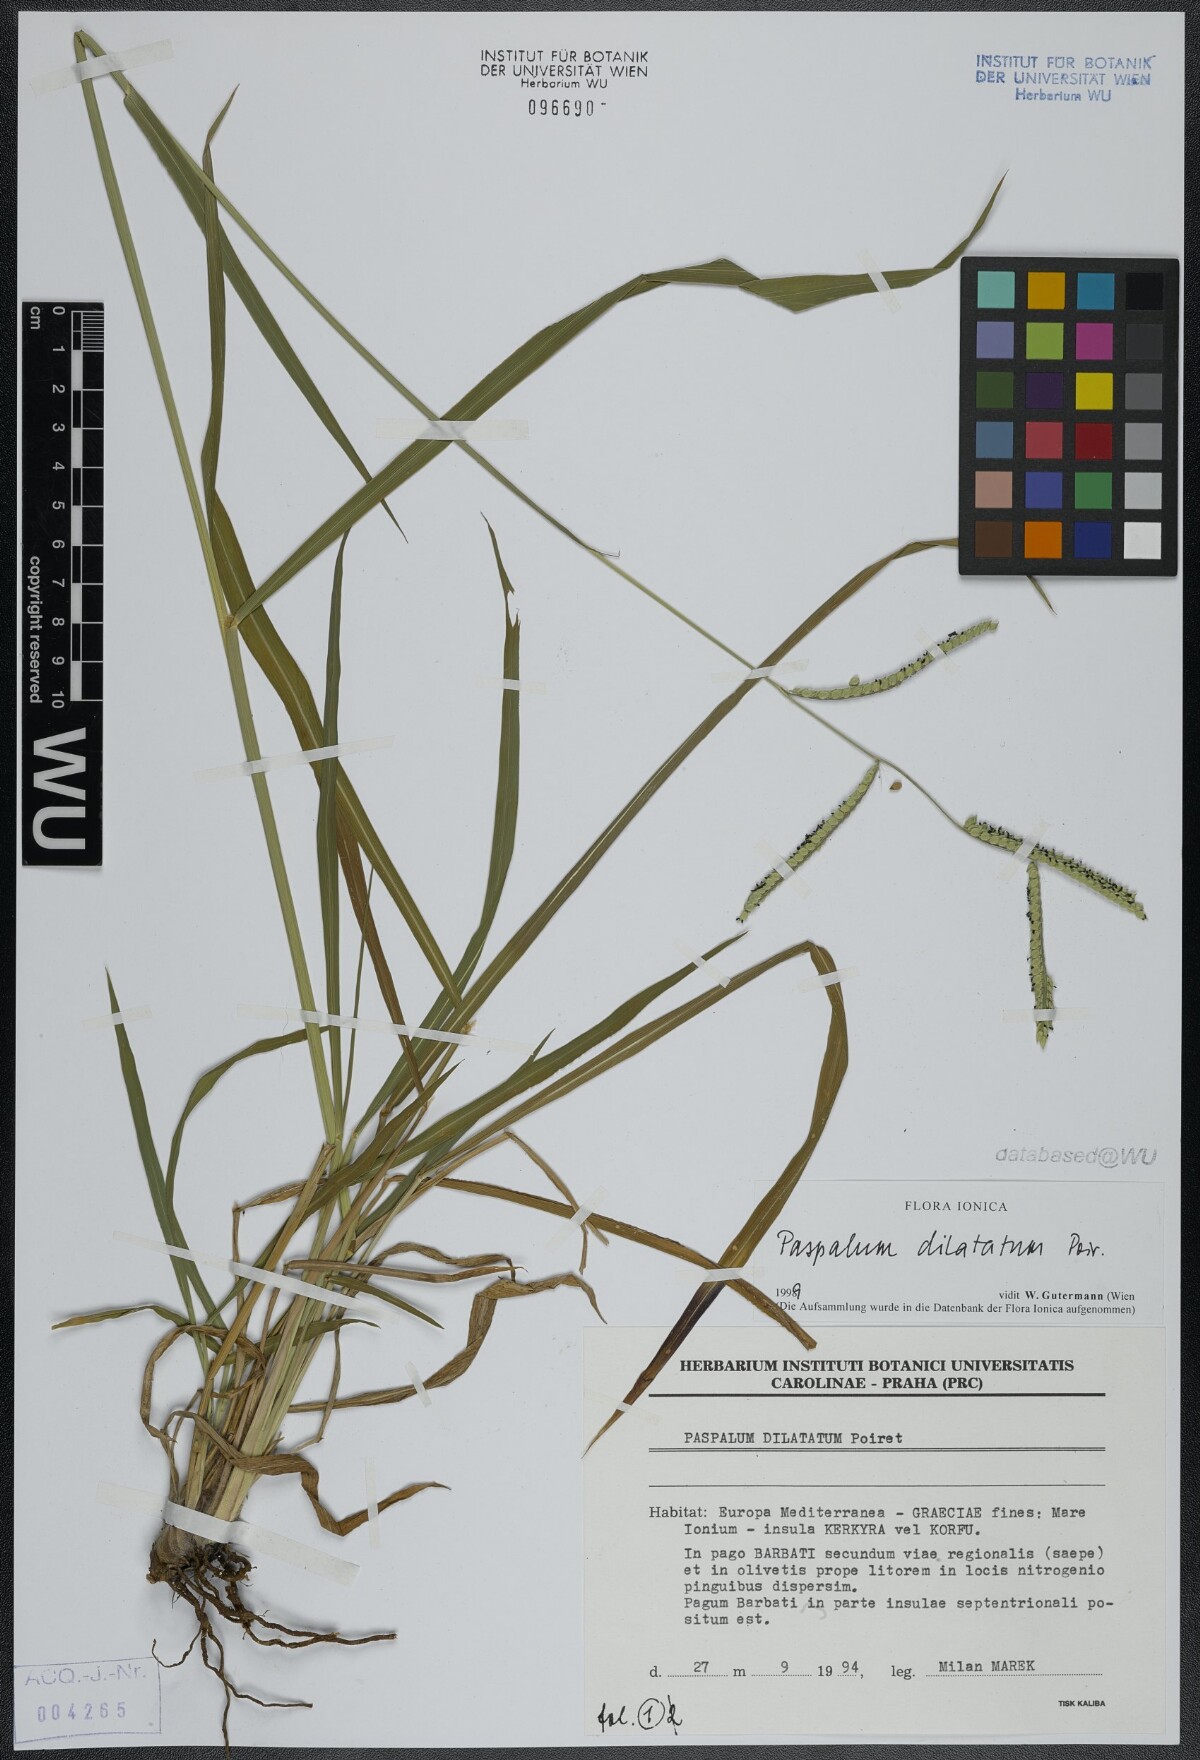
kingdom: Plantae
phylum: Tracheophyta
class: Liliopsida
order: Poales
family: Poaceae
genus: Paspalum
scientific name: Paspalum dilatatum
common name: Dallisgrass
